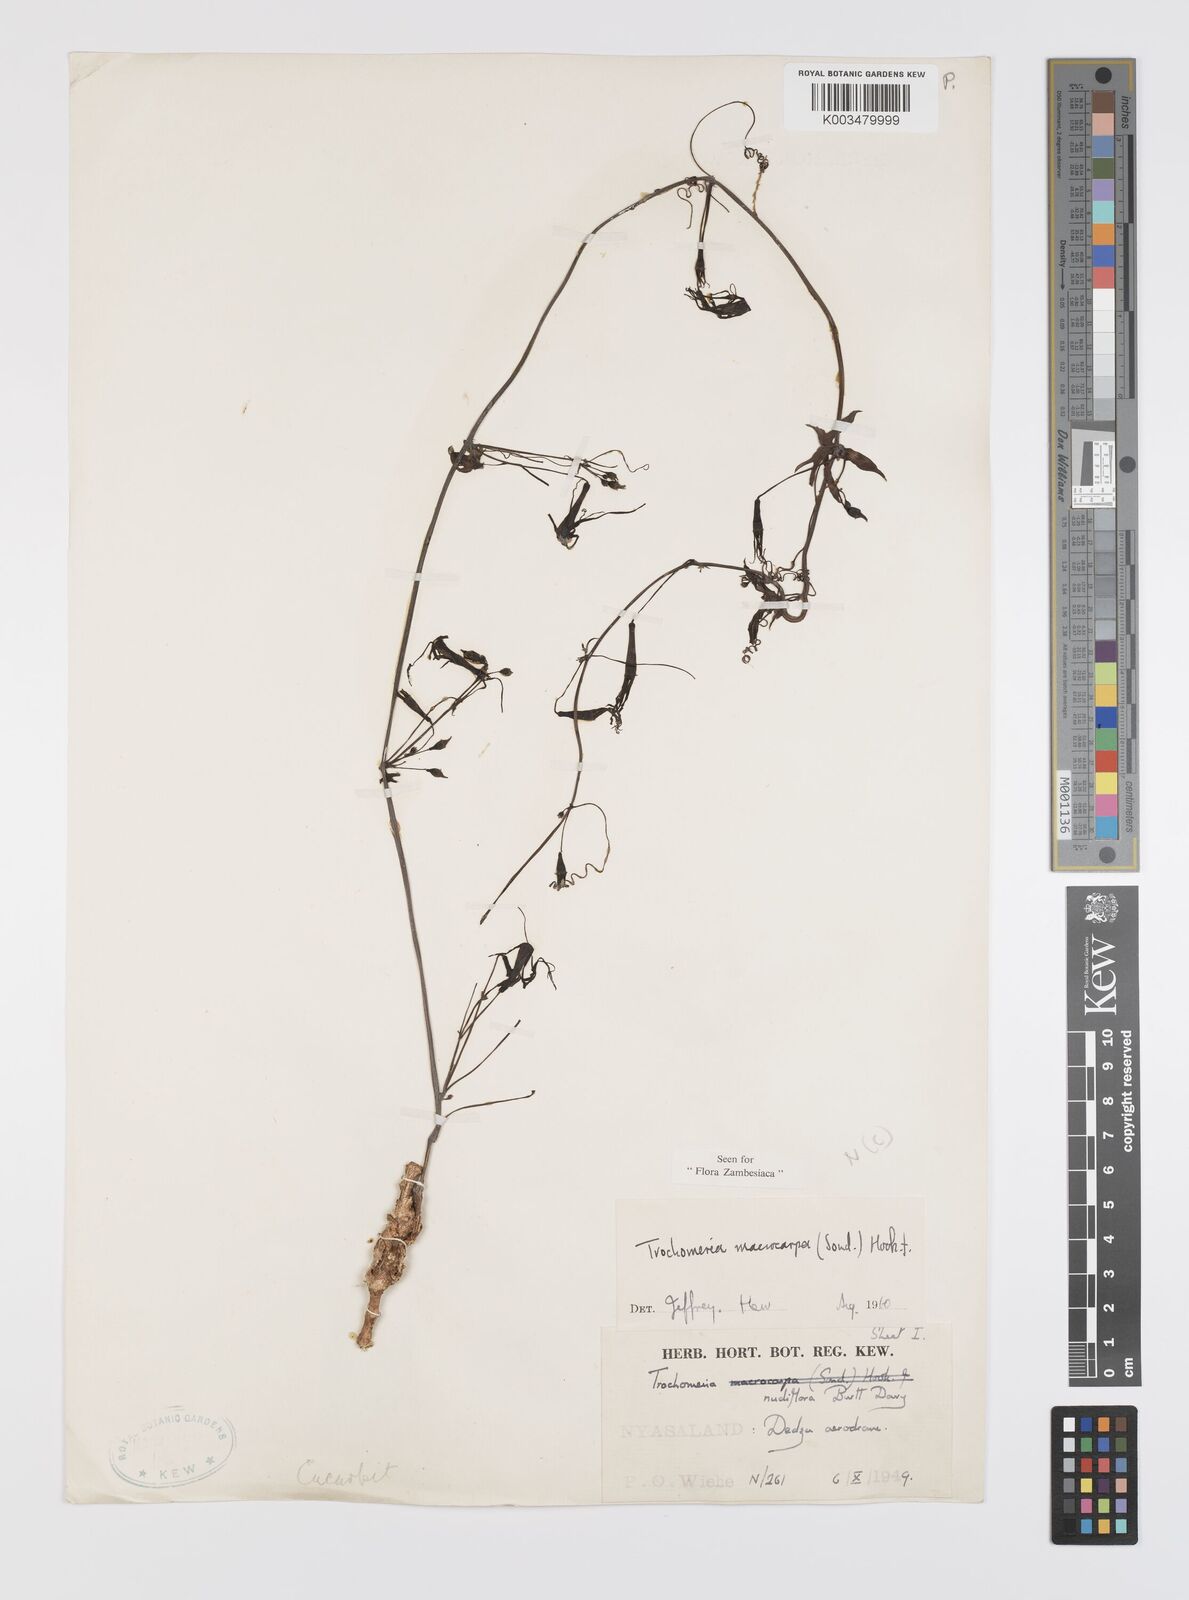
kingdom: Plantae
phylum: Tracheophyta
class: Magnoliopsida
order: Cucurbitales
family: Cucurbitaceae
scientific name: Cucurbitaceae
